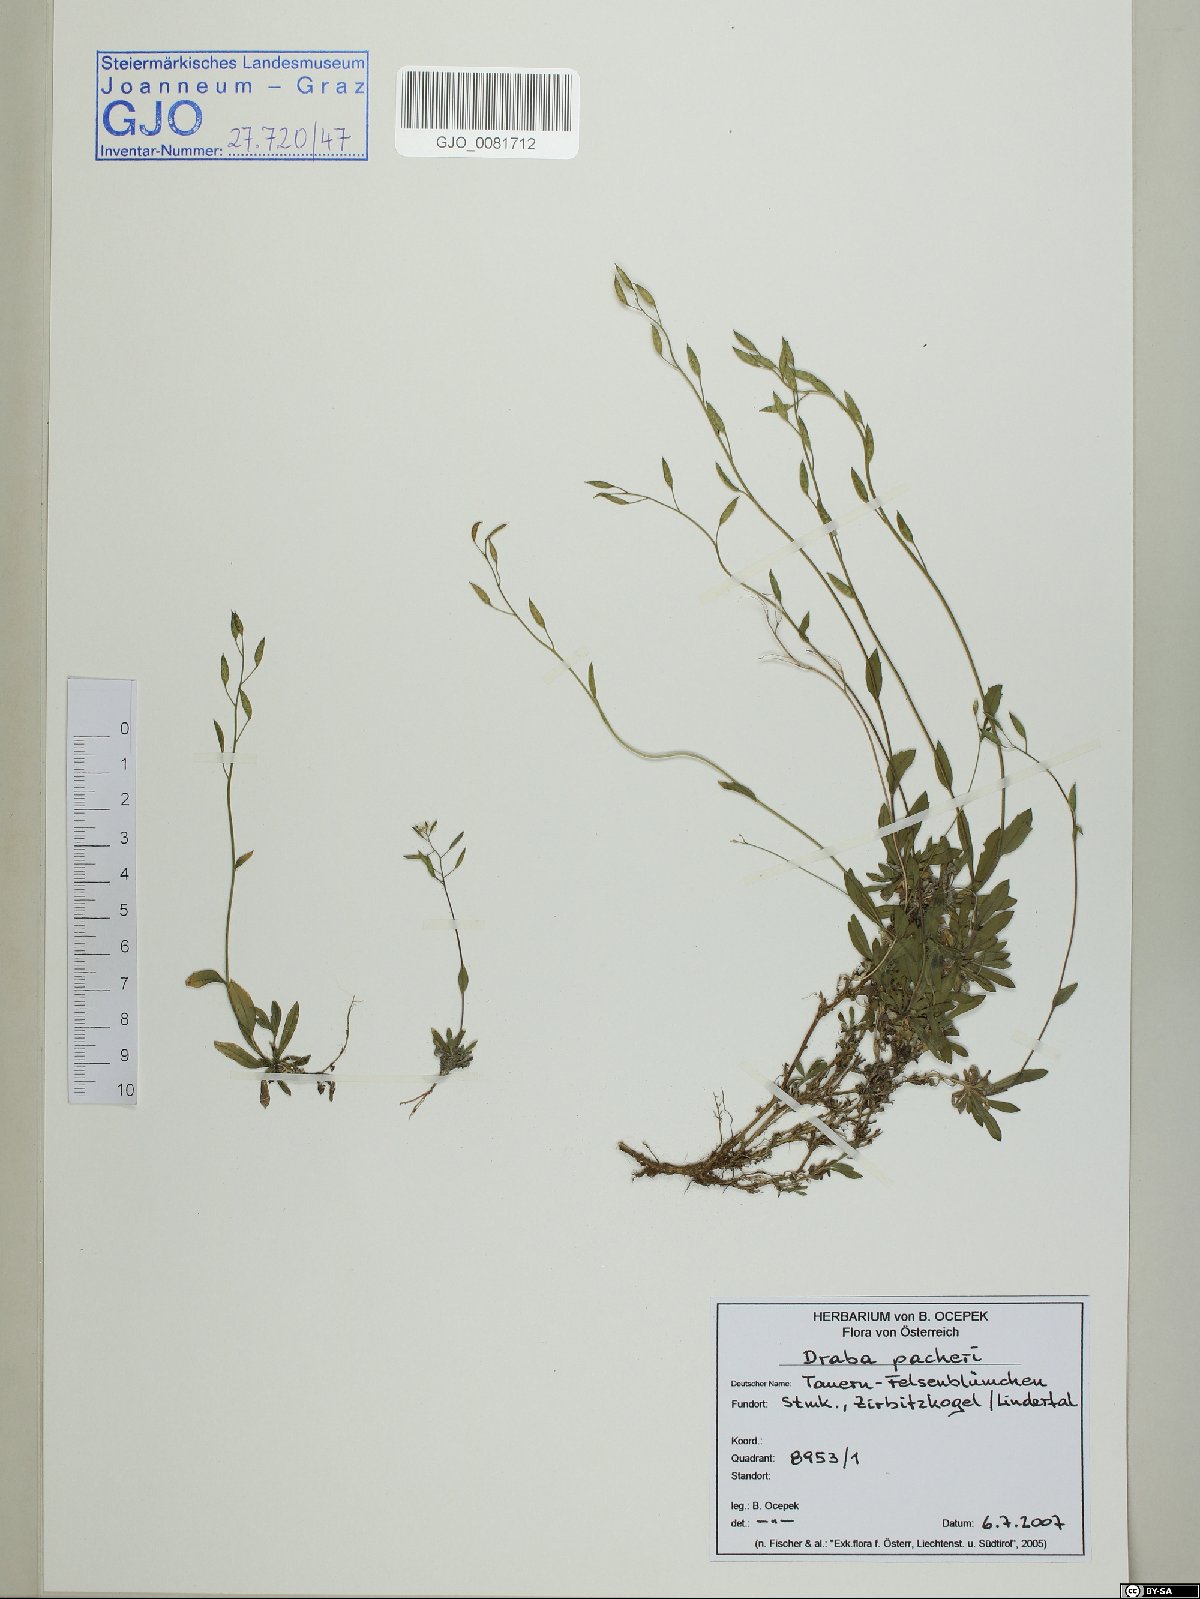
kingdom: Plantae
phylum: Tracheophyta
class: Magnoliopsida
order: Brassicales
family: Brassicaceae
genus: Draba
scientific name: Draba pacheri
